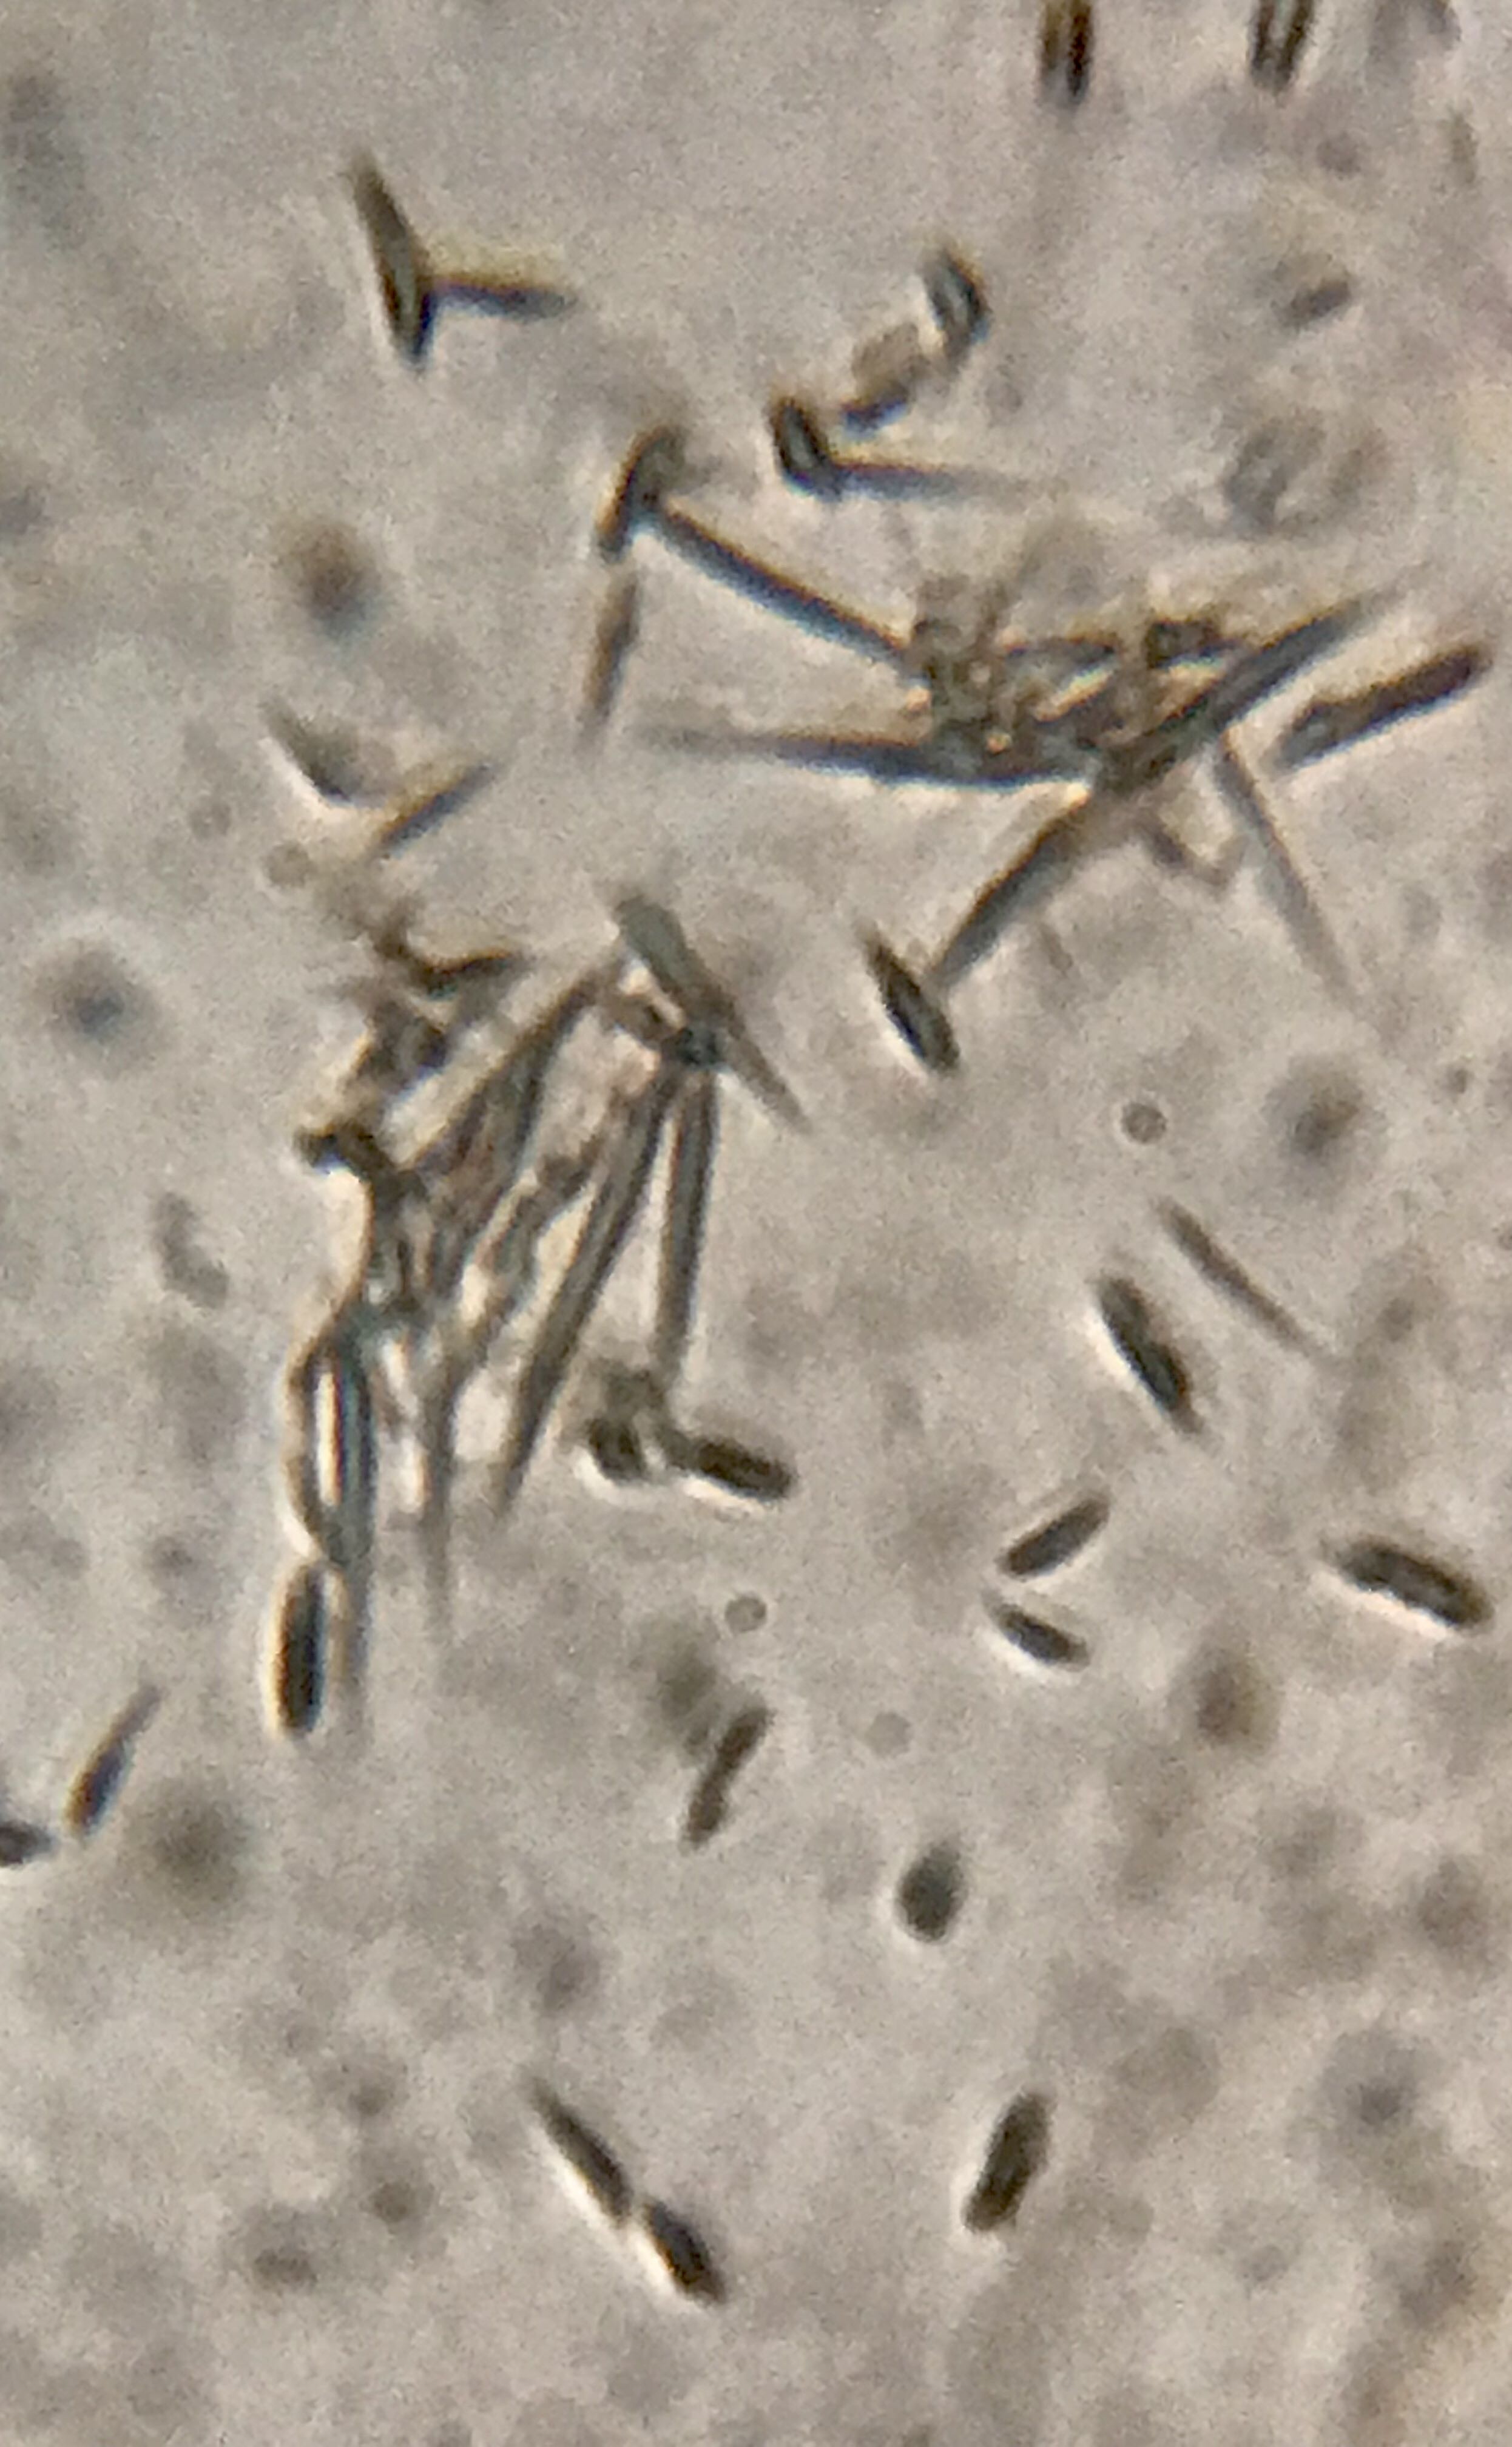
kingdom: Fungi
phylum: Basidiomycota
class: Agaricomycetes
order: Agaricales
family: Tricholomataceae
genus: Tricholoma
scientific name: Tricholoma
